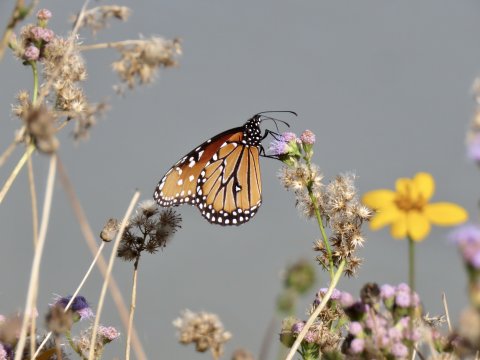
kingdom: Animalia
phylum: Arthropoda
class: Insecta
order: Lepidoptera
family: Nymphalidae
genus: Danaus
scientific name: Danaus gilippus
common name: Queen
